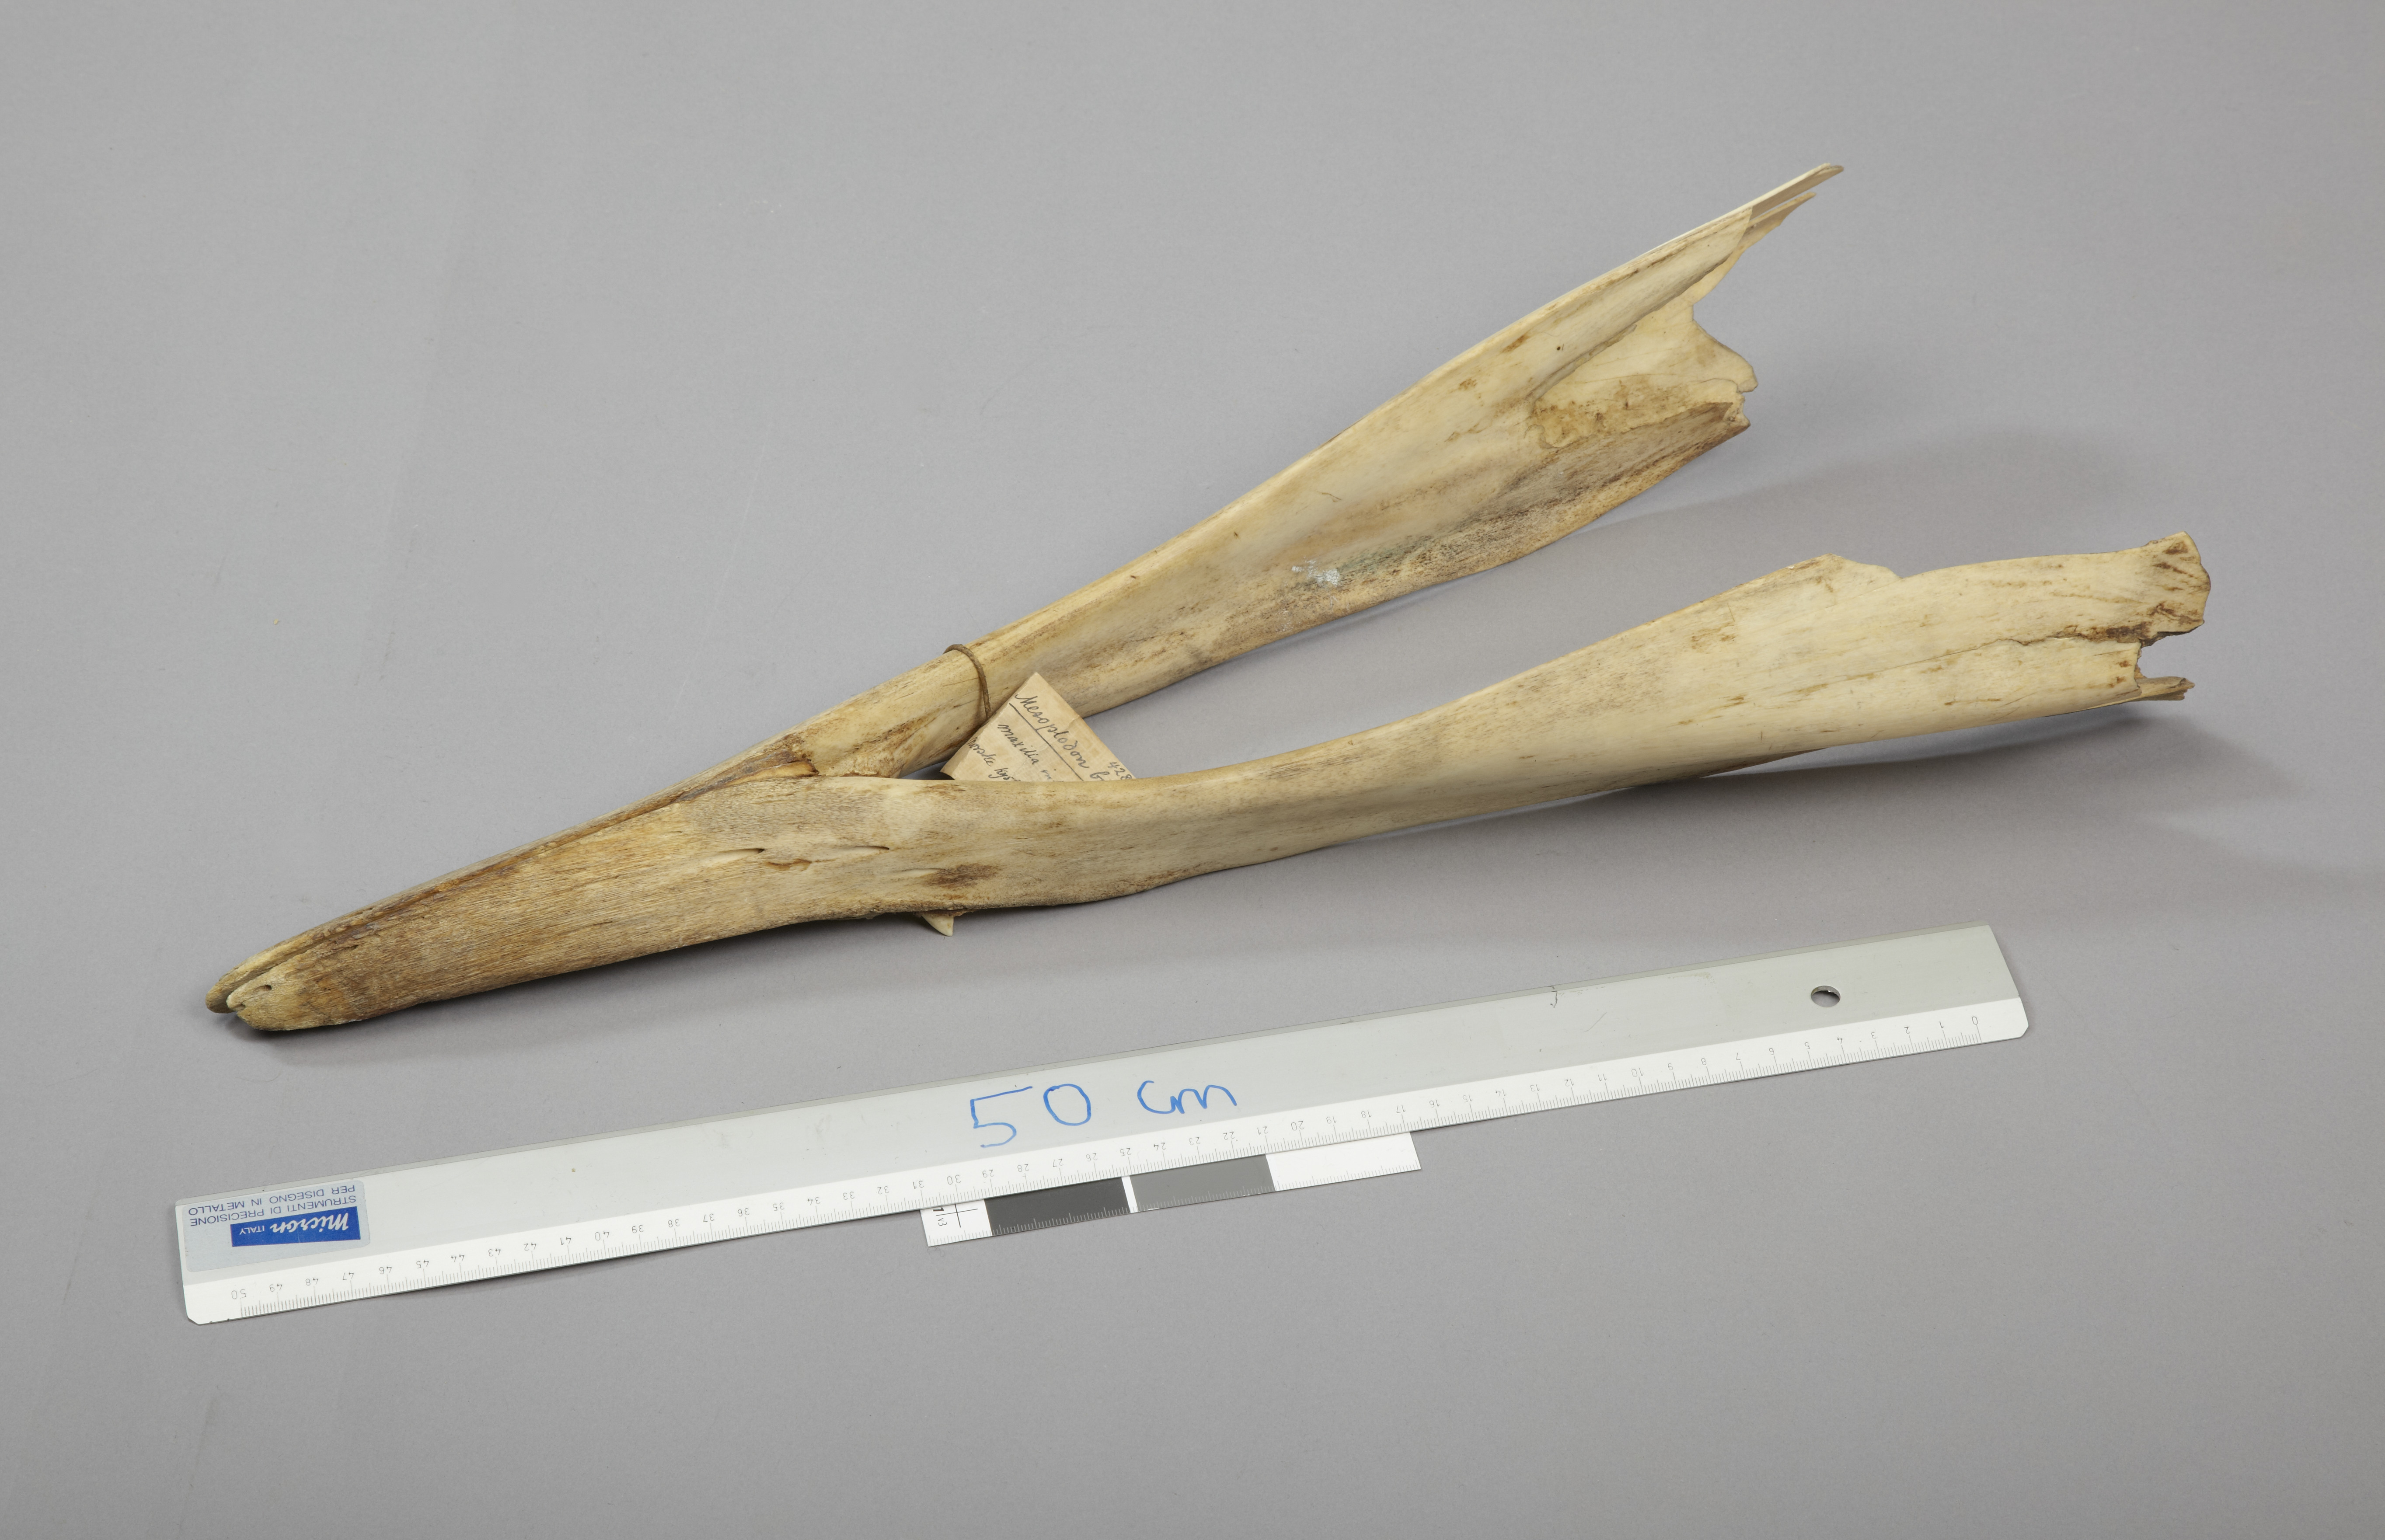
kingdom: Animalia
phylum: Chordata
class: Mammalia
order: Cetacea
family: Hyperoodontidae
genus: Mesoplodon
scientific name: Mesoplodon bidens
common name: Sowerby's beaked whale
